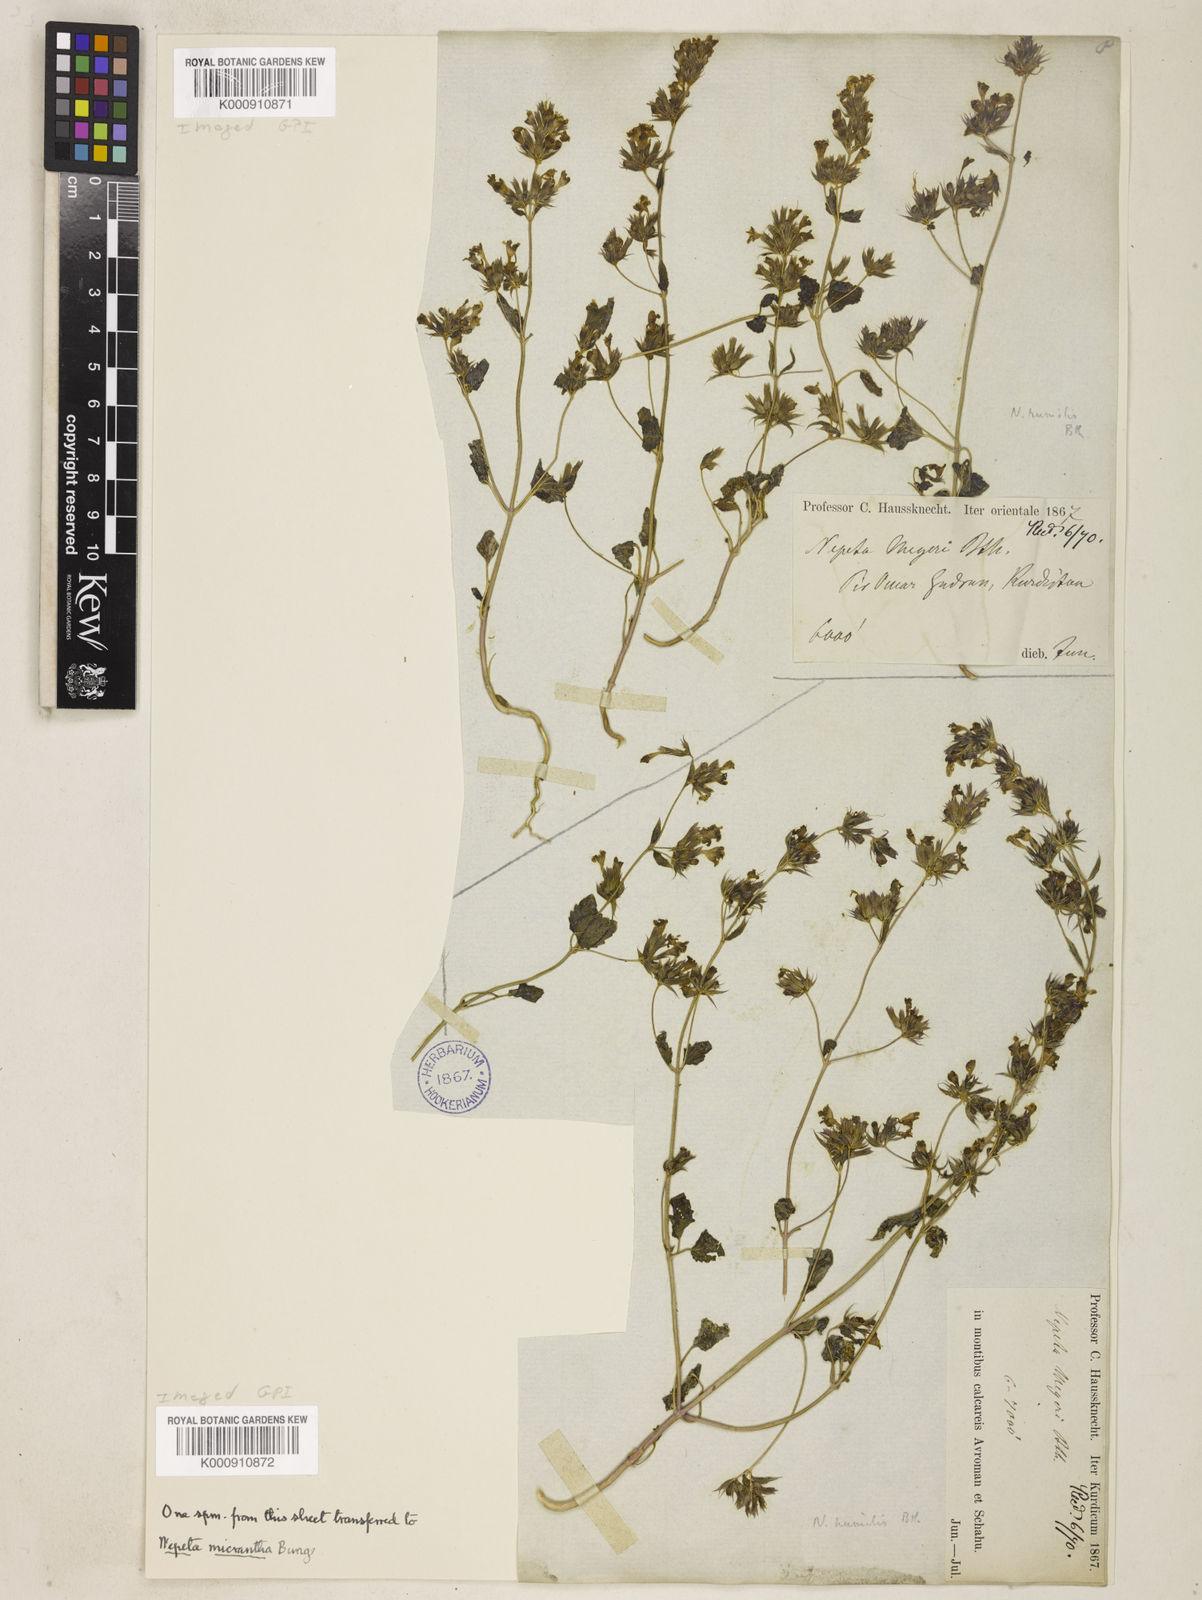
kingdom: Plantae
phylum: Tracheophyta
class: Magnoliopsida
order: Lamiales
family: Lamiaceae
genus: Nepeta
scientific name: Nepeta humilis
